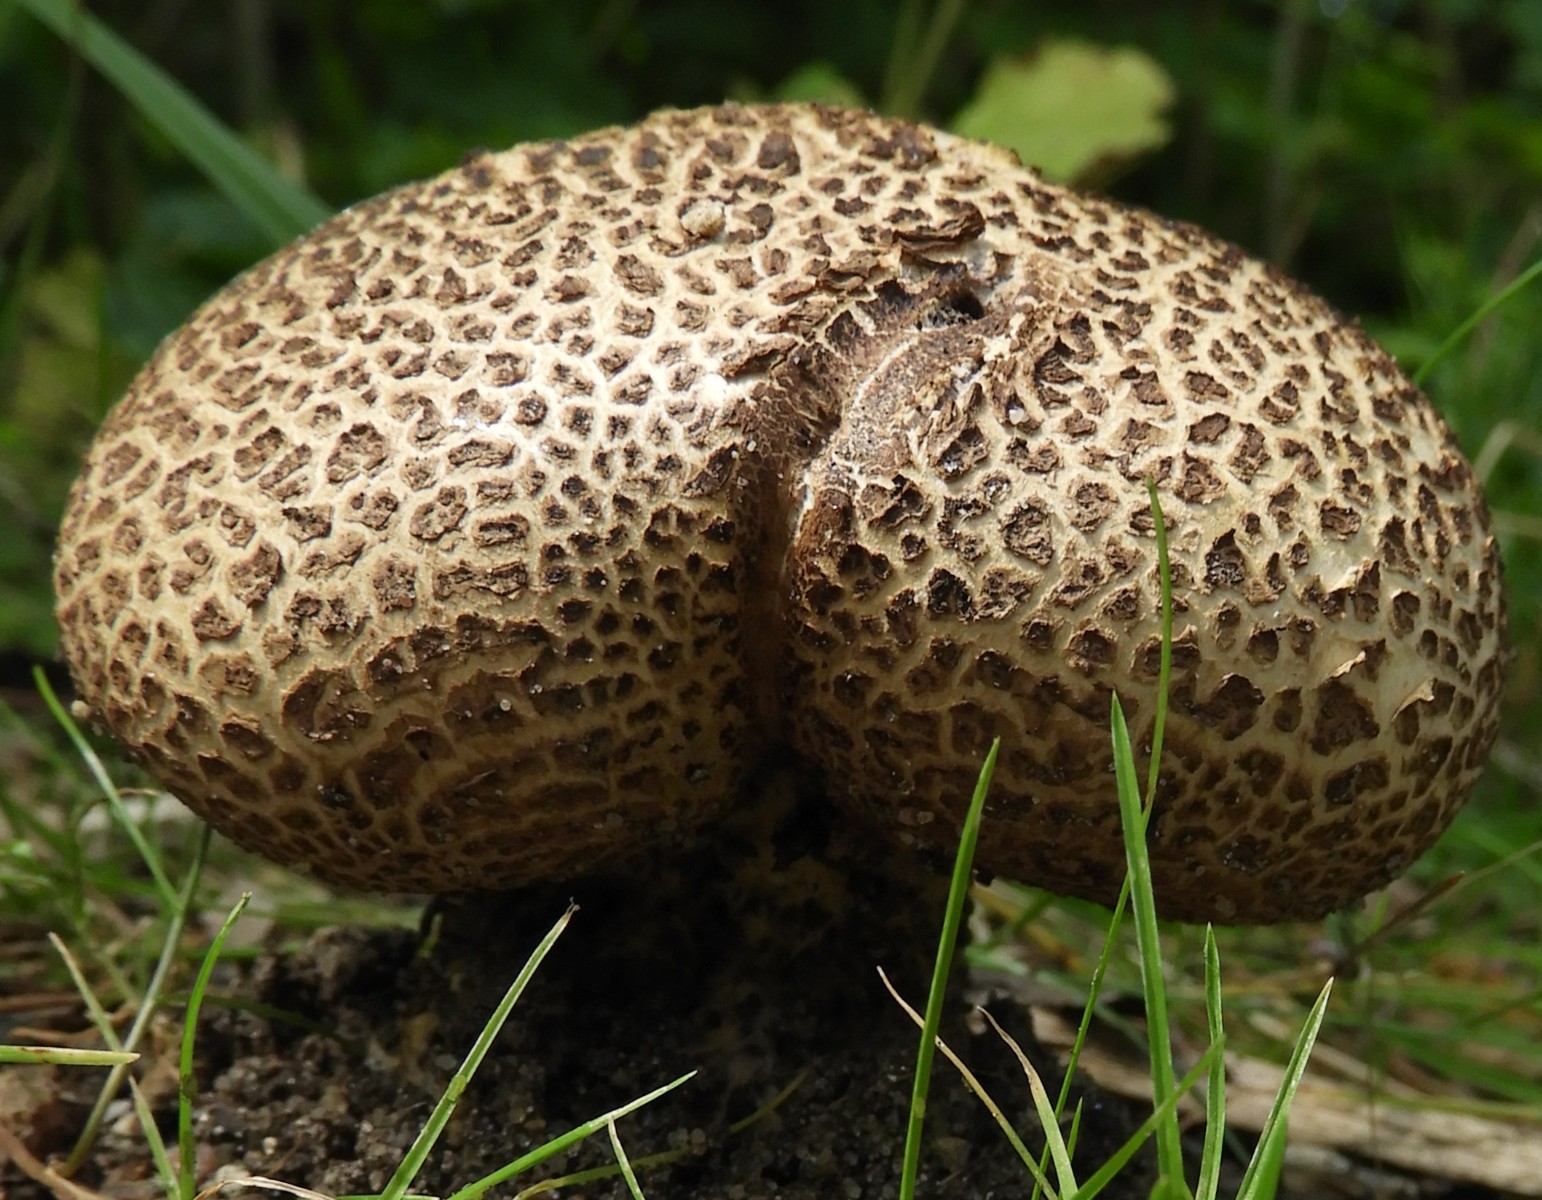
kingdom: Fungi
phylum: Basidiomycota
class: Agaricomycetes
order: Boletales
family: Sclerodermataceae
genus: Scleroderma
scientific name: Scleroderma verrucosum
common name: stilket bruskbold
